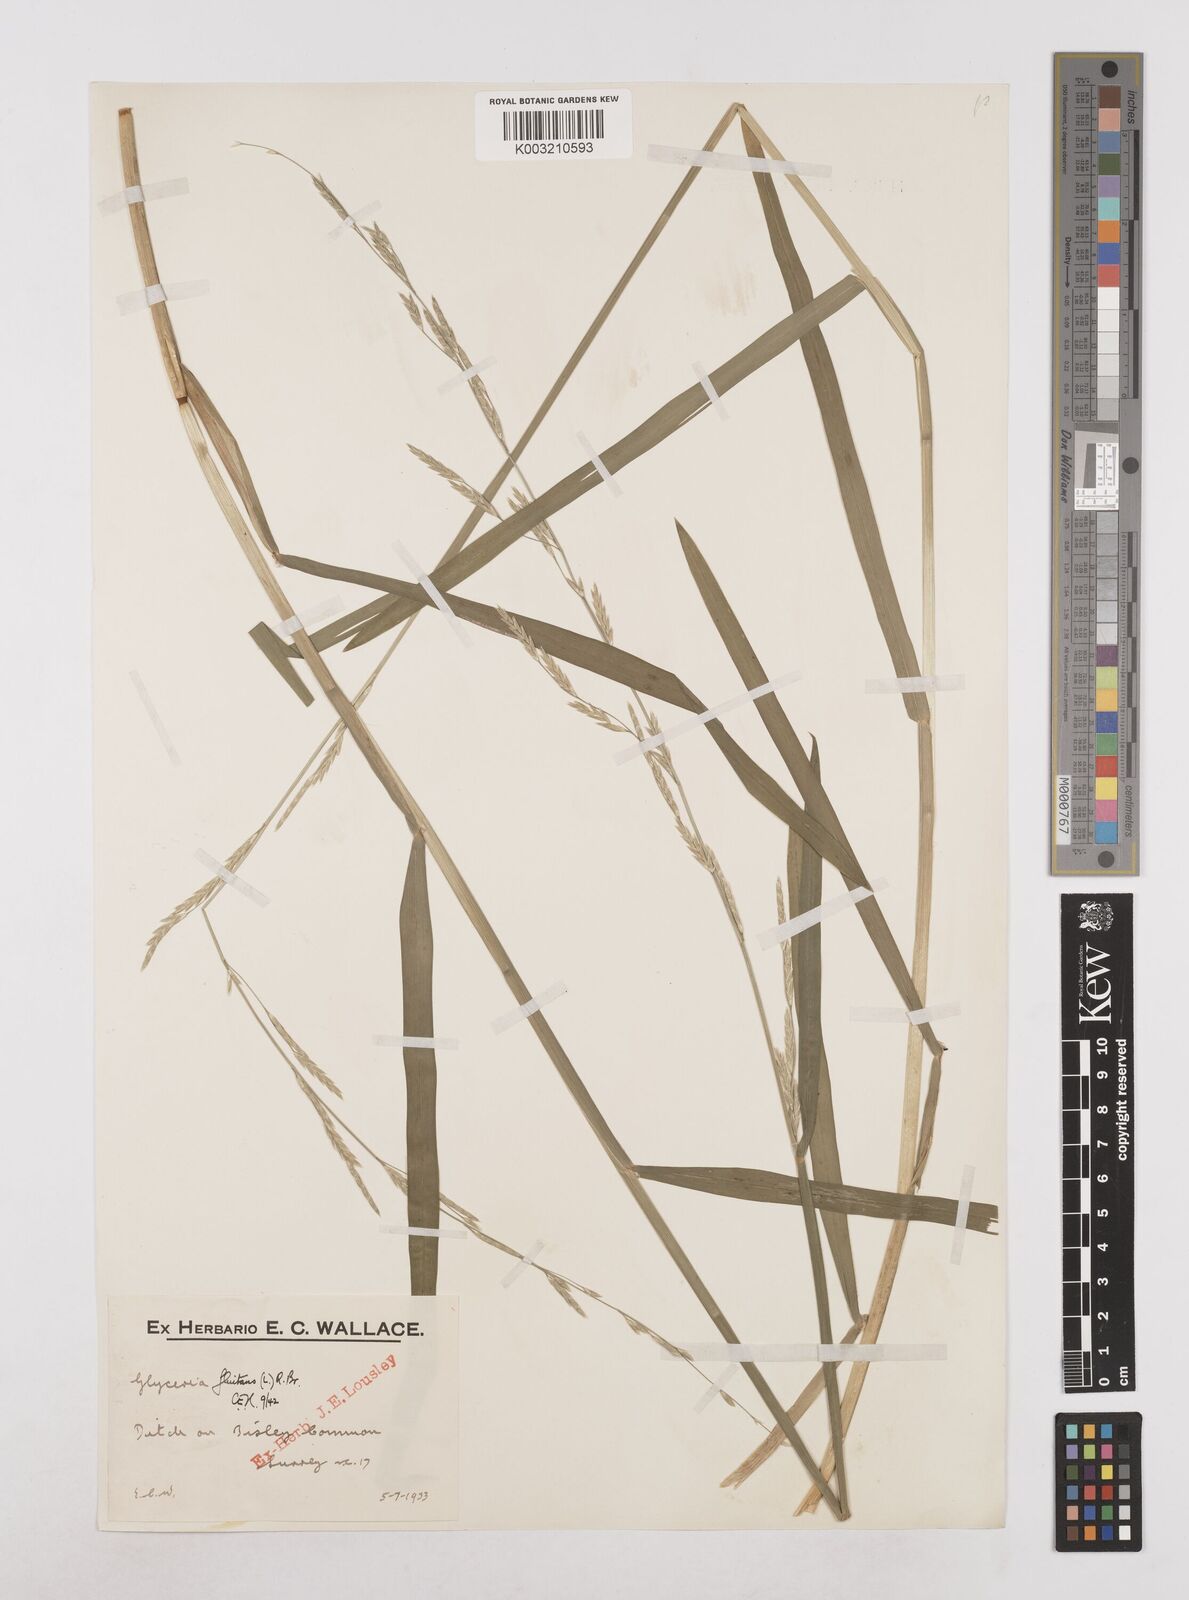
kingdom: Plantae
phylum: Tracheophyta
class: Liliopsida
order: Poales
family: Poaceae
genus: Glyceria
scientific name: Glyceria fluitans
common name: Floating sweet-grass
